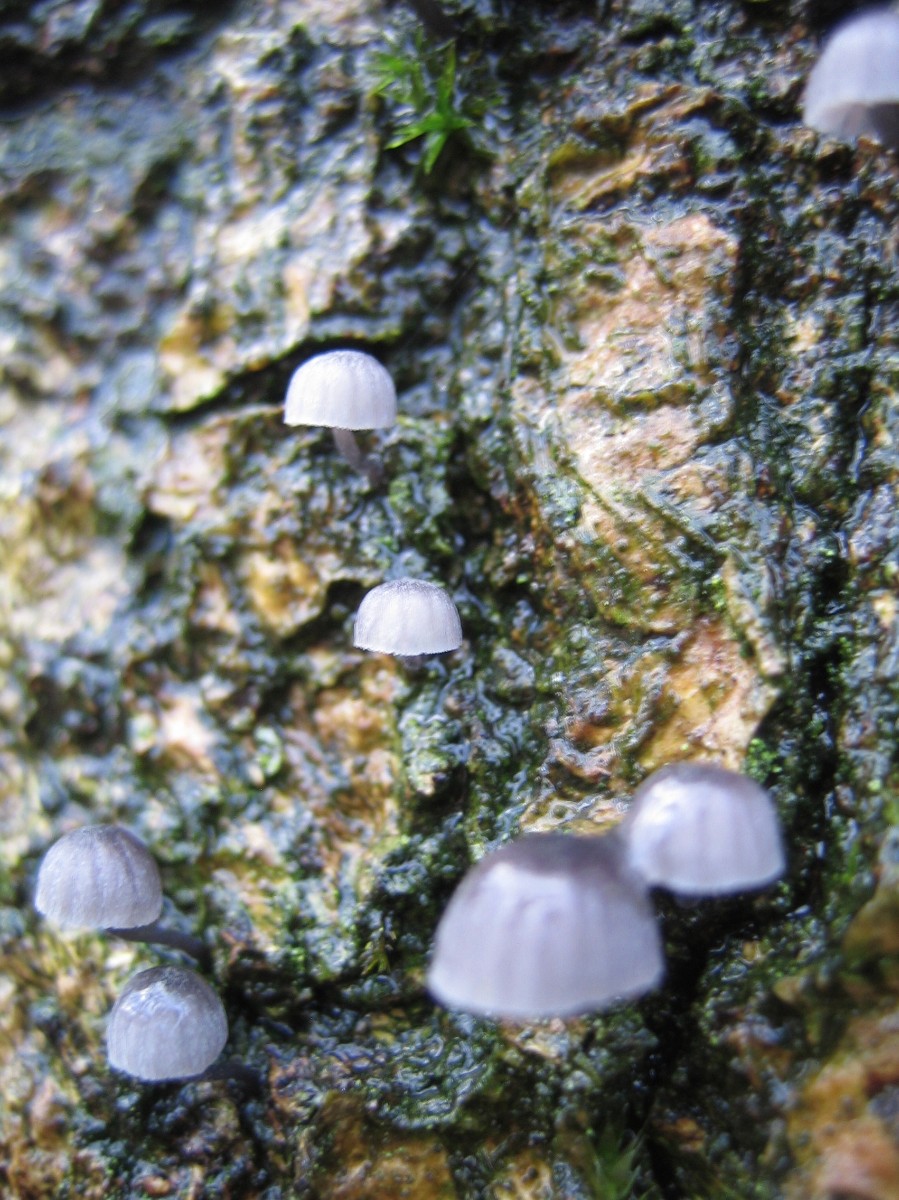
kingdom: Fungi
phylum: Basidiomycota
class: Agaricomycetes
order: Agaricales
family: Mycenaceae
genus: Mycena
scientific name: Mycena pseudocorticola
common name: gråblå bark-huesvamp
